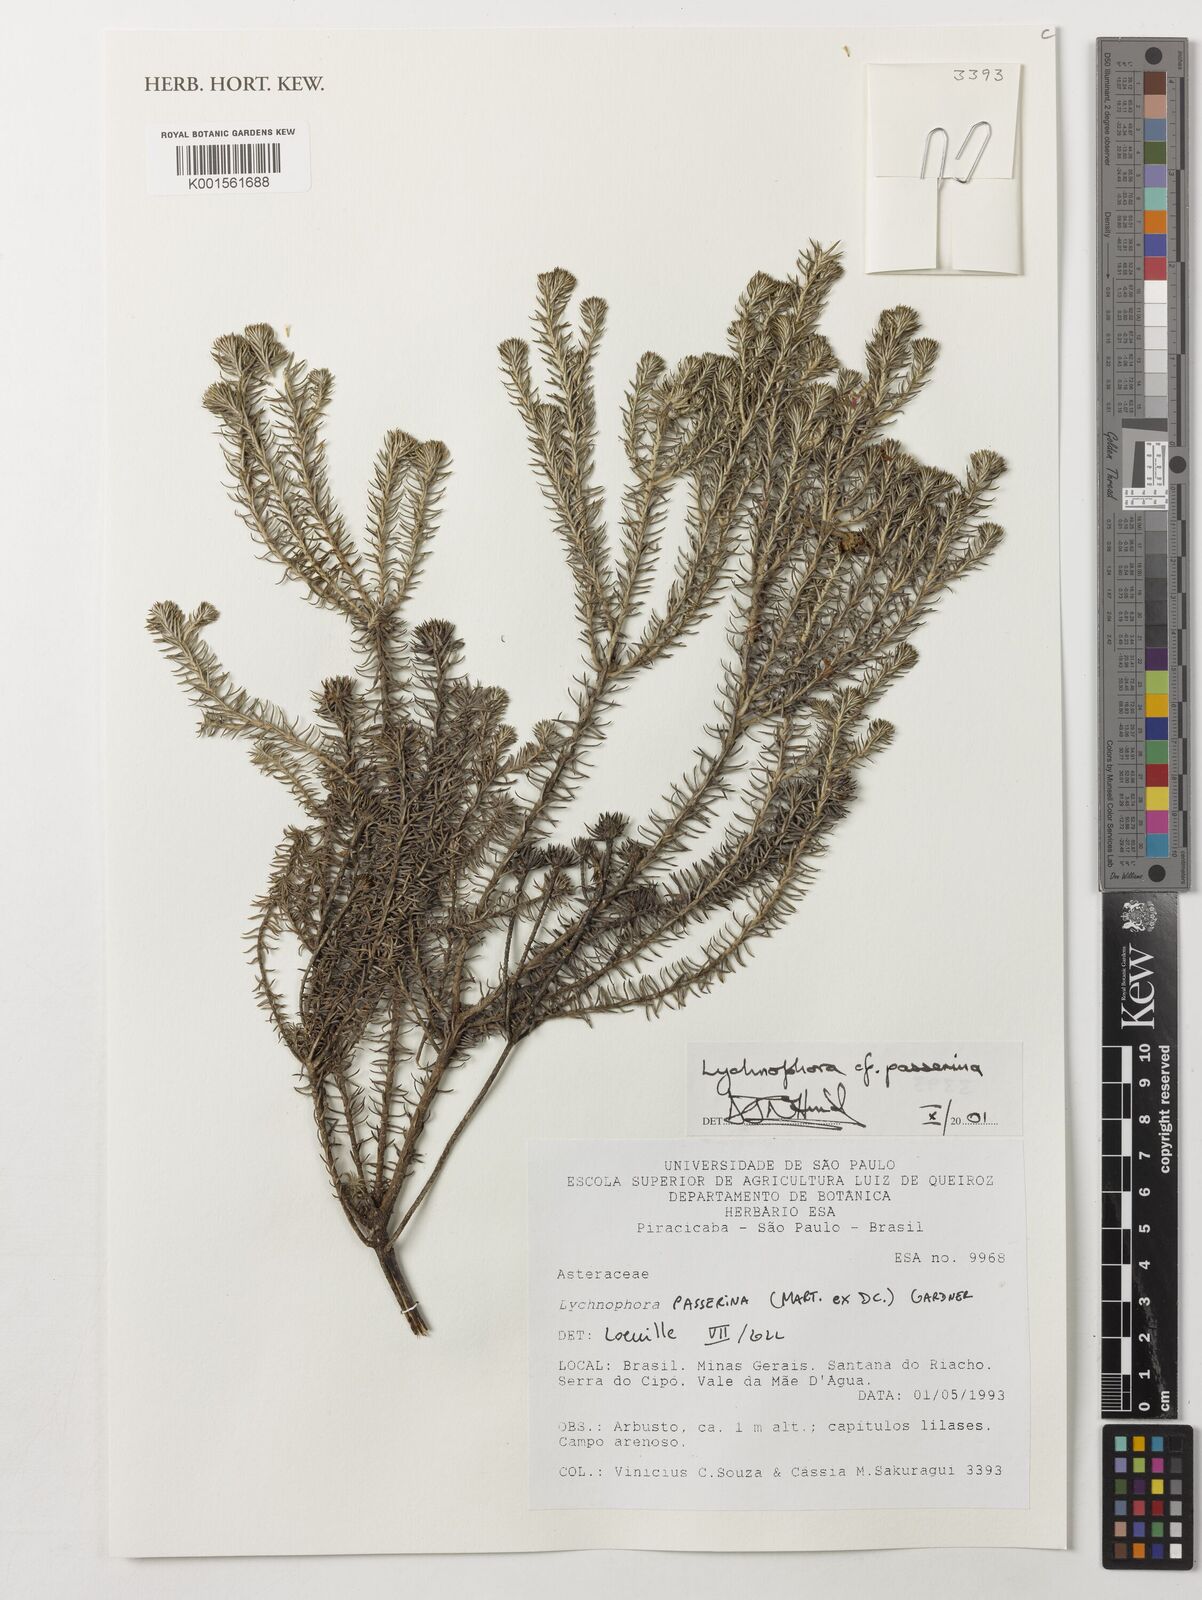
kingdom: Plantae
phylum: Tracheophyta
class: Magnoliopsida
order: Asterales
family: Asteraceae
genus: Lychnophora
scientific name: Lychnophora passerina
